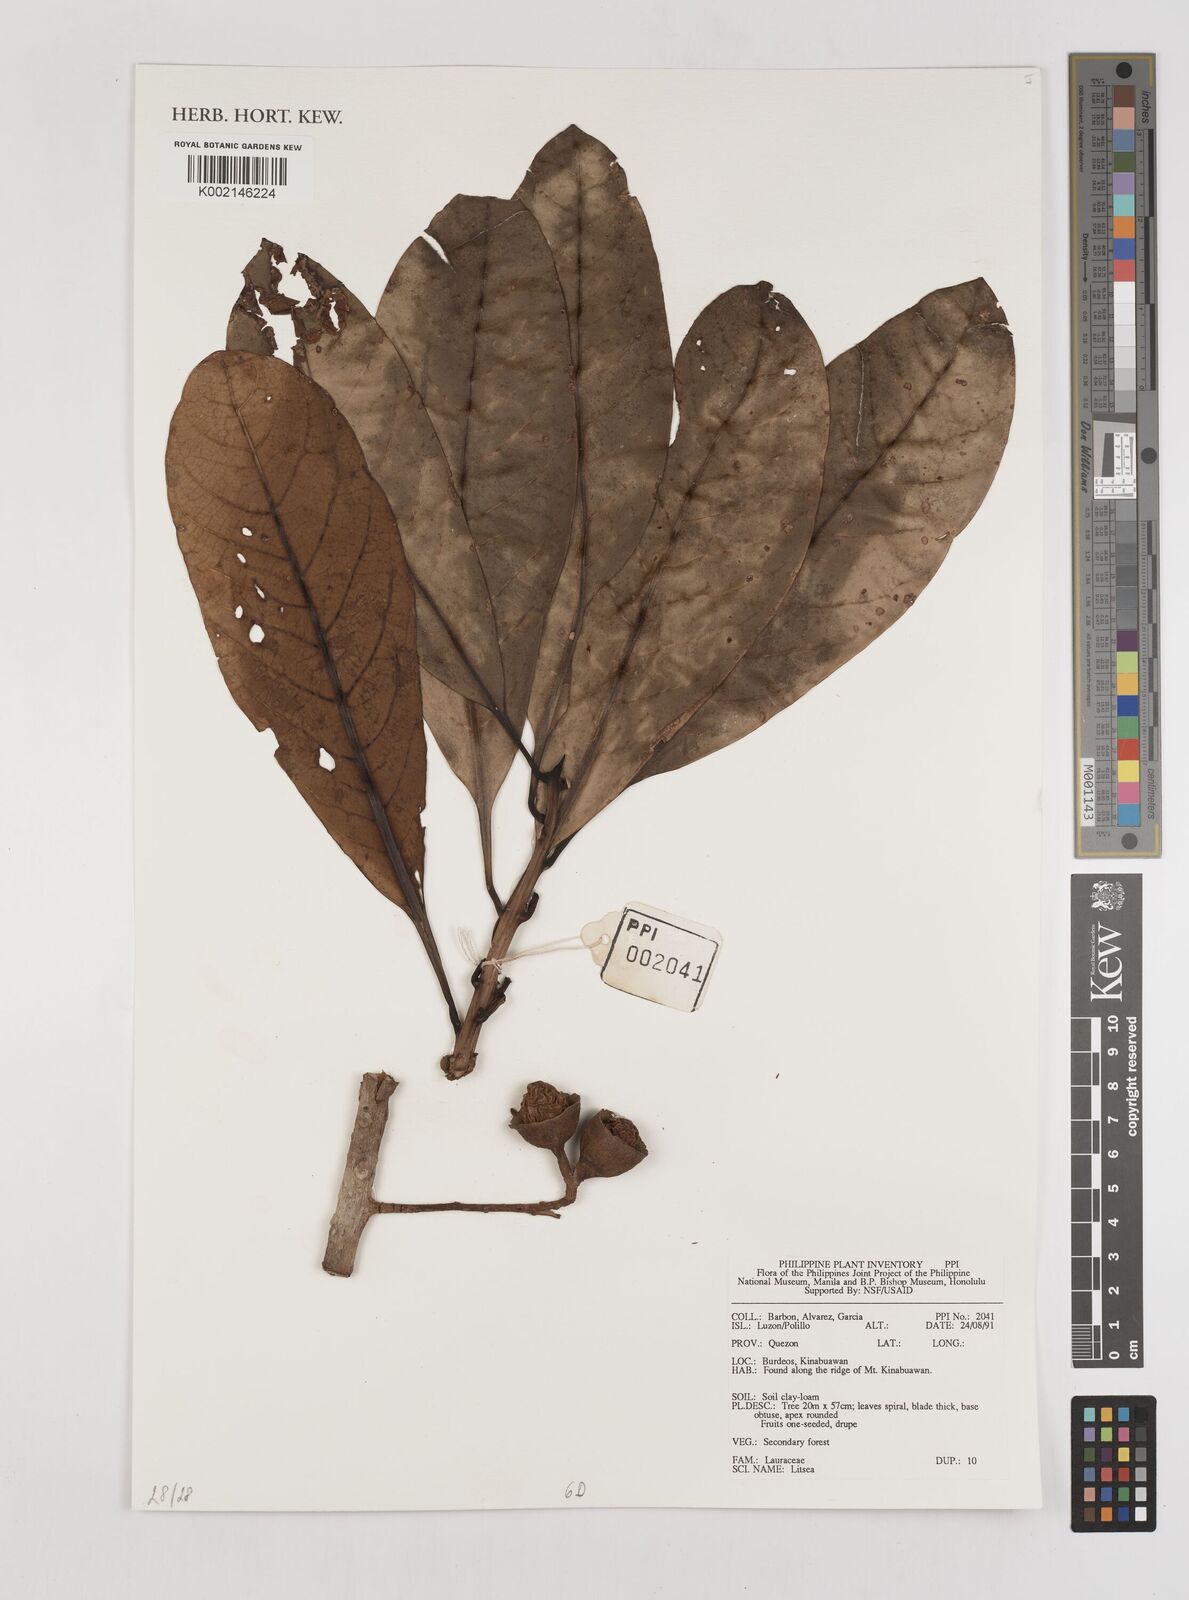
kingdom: Plantae
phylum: Tracheophyta
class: Magnoliopsida
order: Laurales
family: Lauraceae
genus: Litsea
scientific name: Litsea
